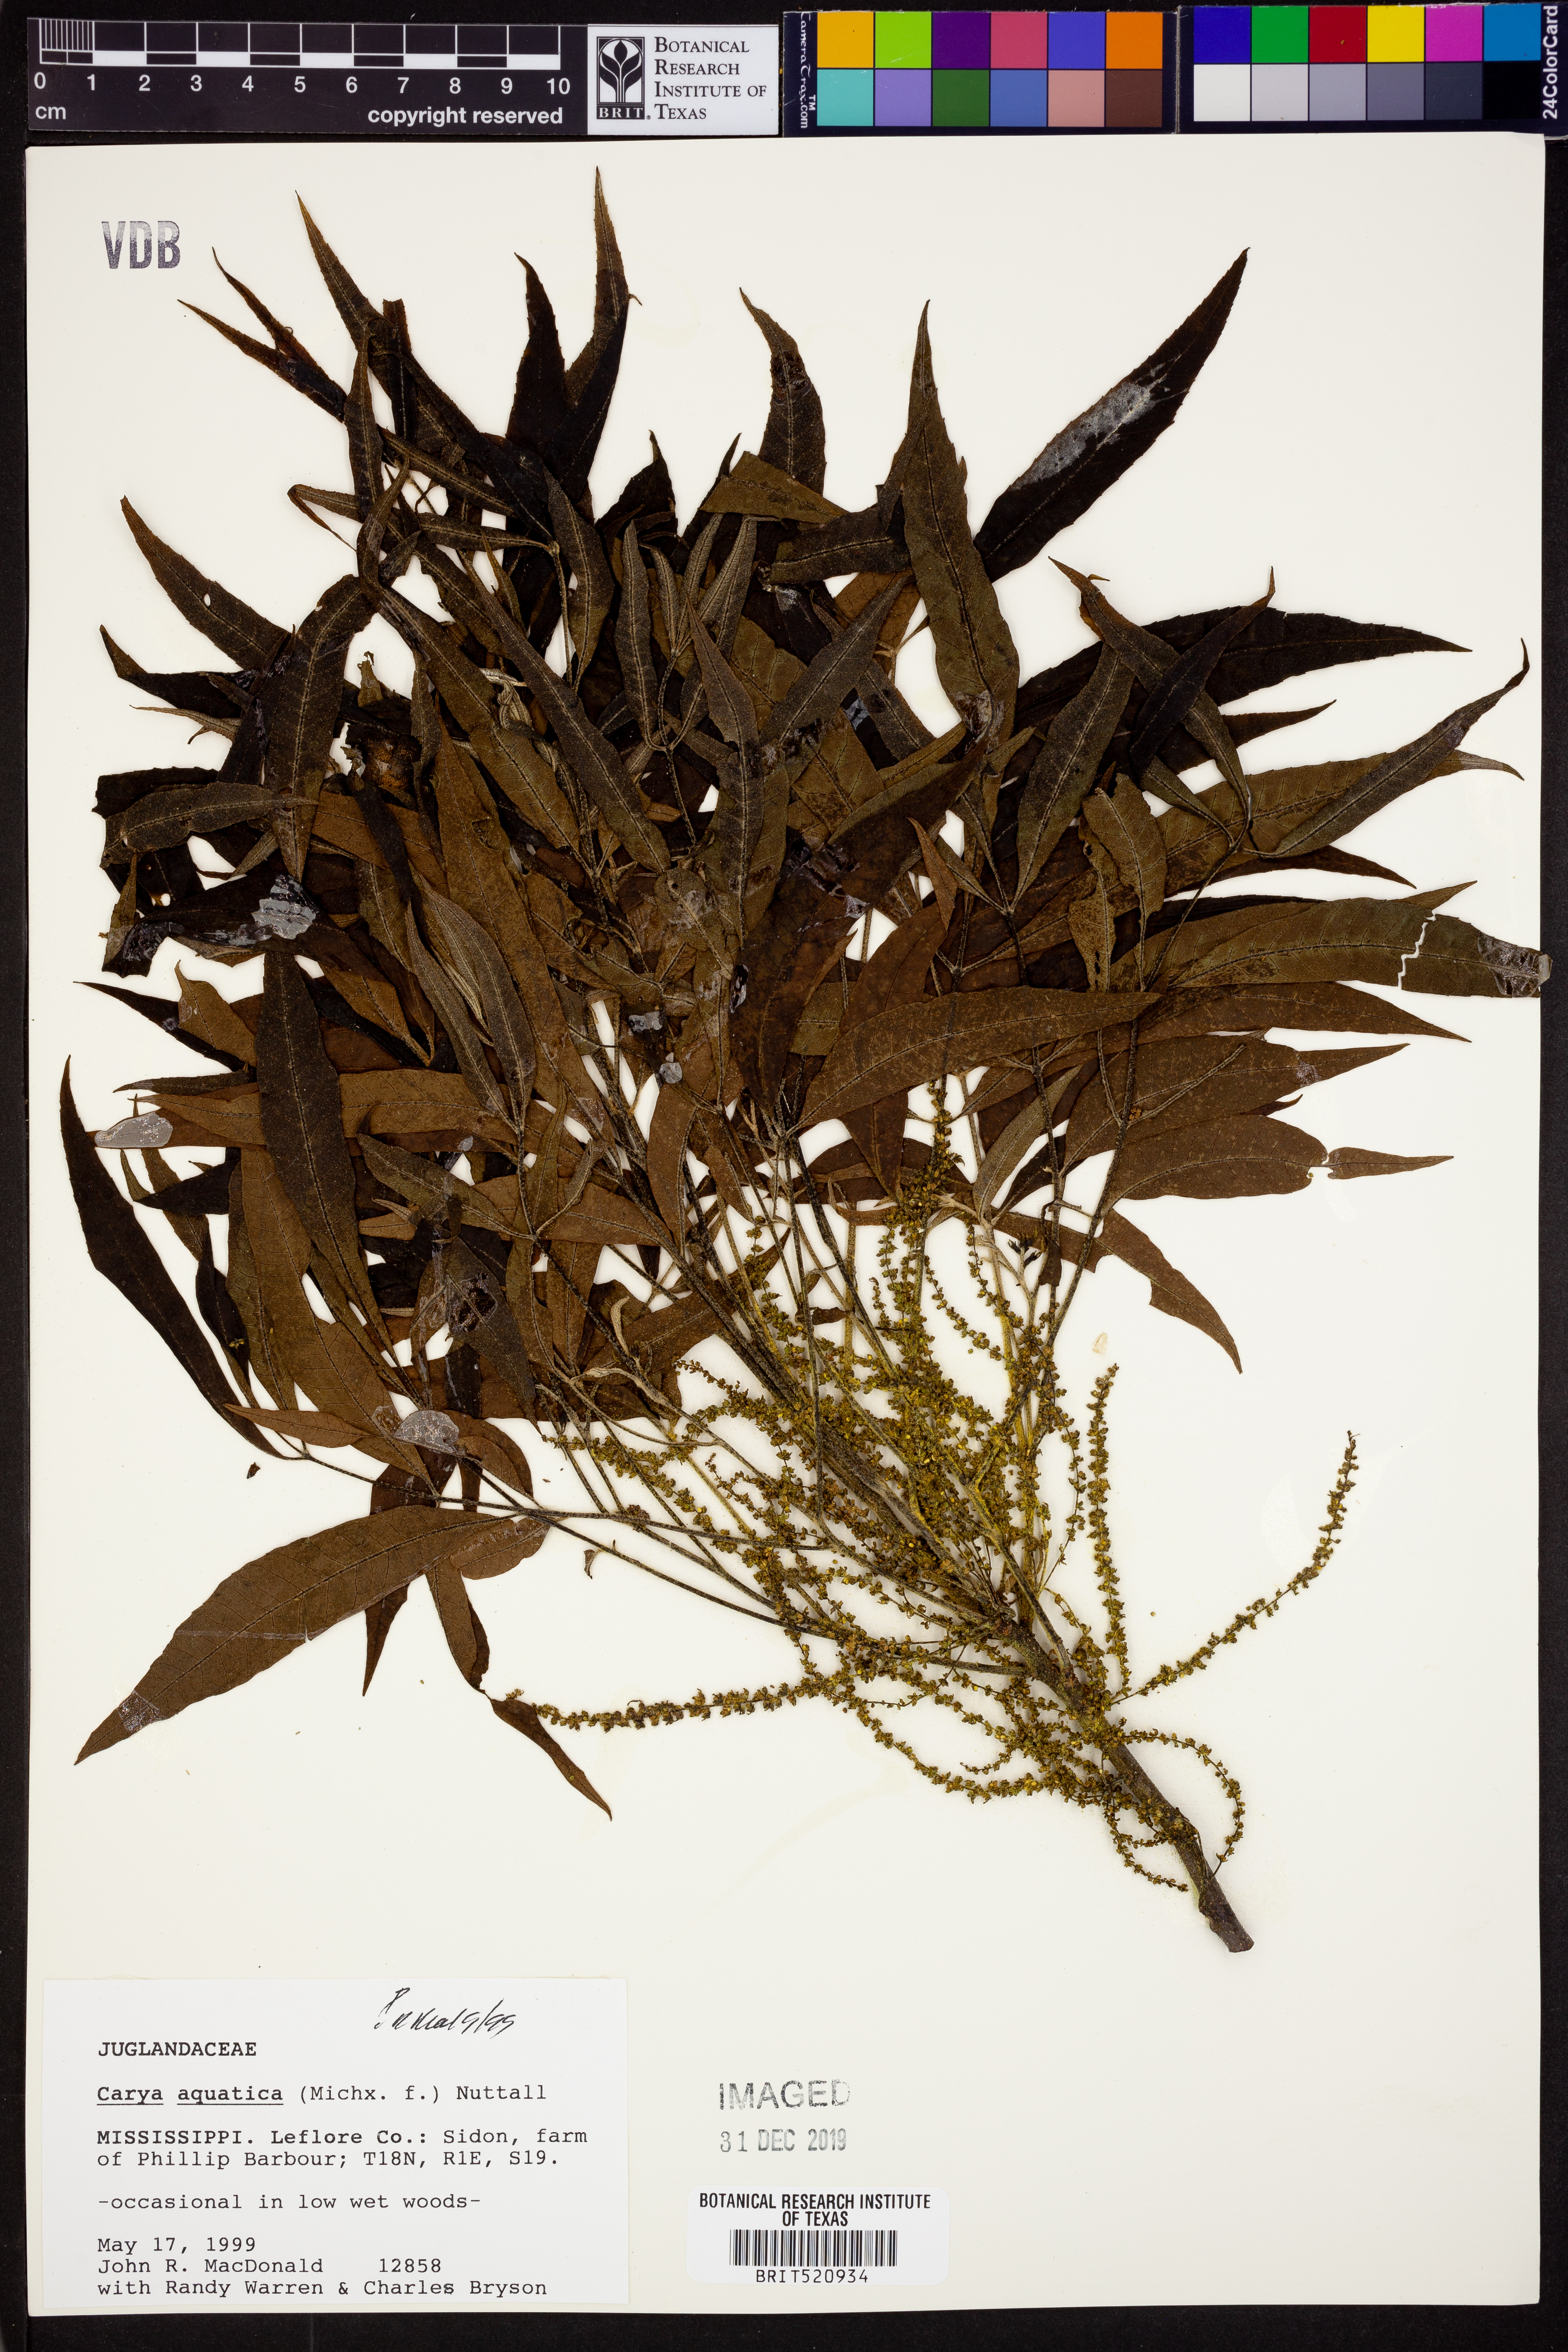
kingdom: Plantae
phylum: Tracheophyta
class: Magnoliopsida
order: Fagales
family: Juglandaceae
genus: Carya
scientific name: Carya aquatica
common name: Water hickory
